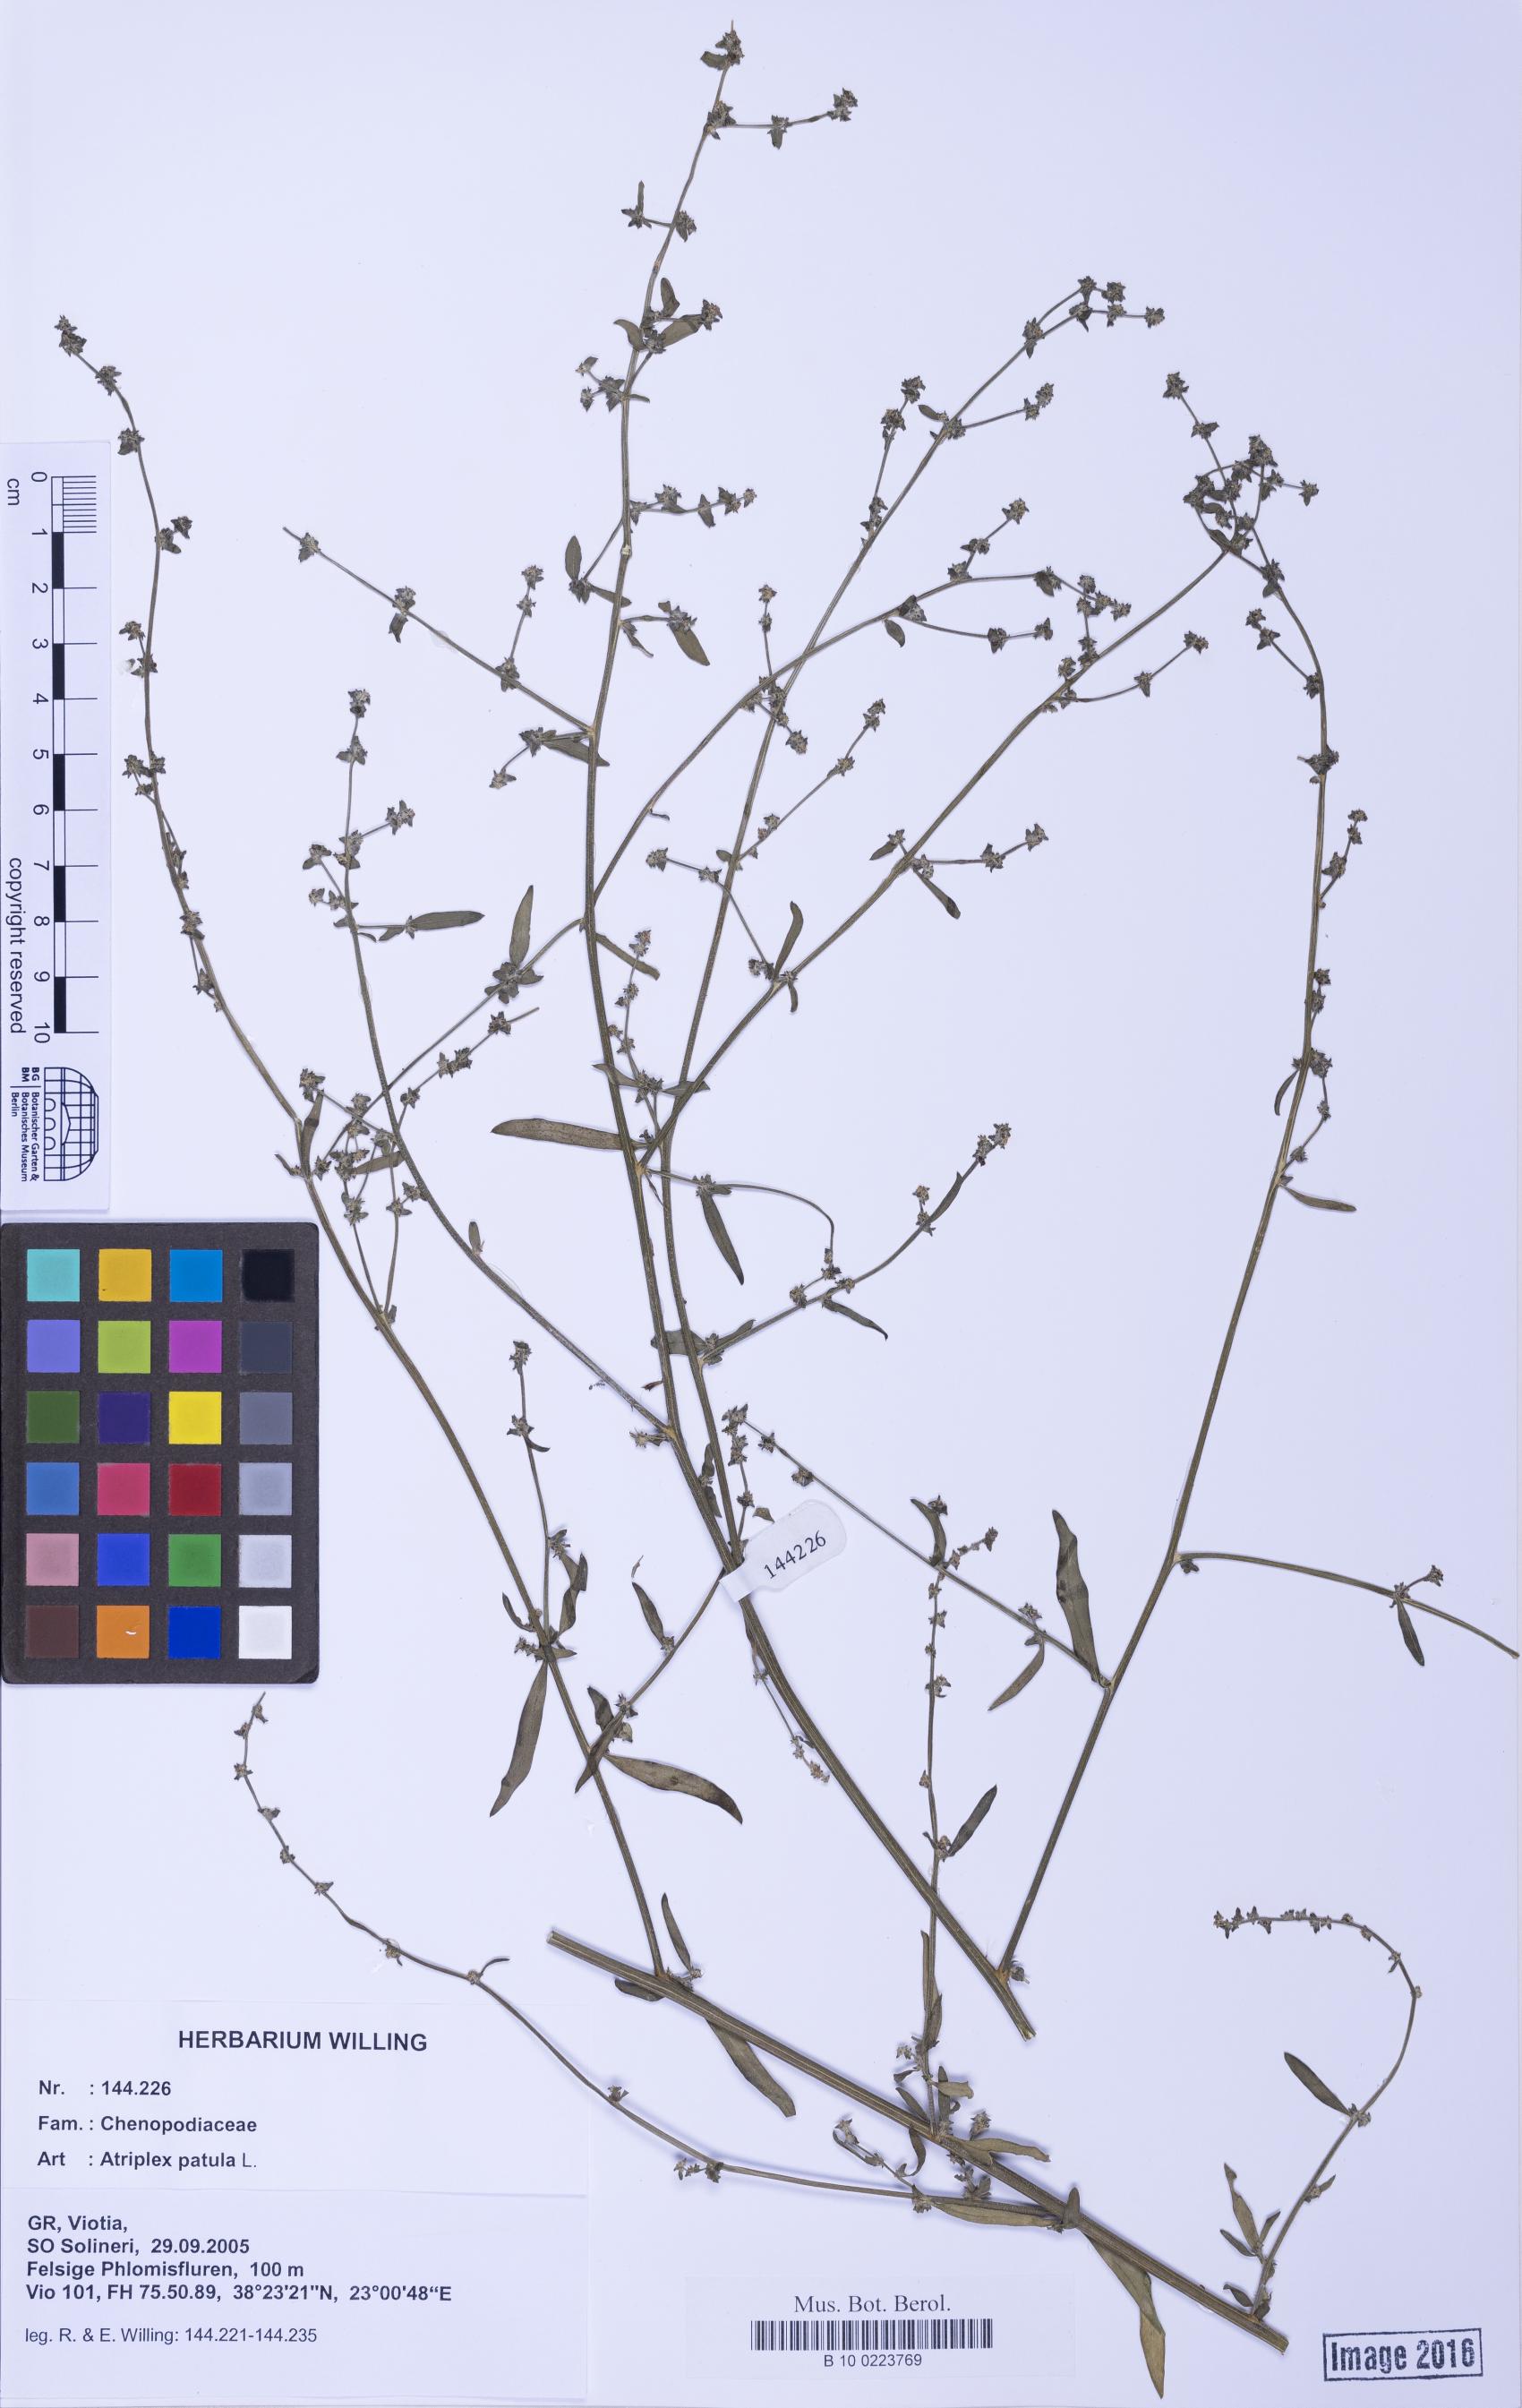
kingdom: Plantae
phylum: Tracheophyta
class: Magnoliopsida
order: Caryophyllales
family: Amaranthaceae
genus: Atriplex
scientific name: Atriplex patula
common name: Common orache
